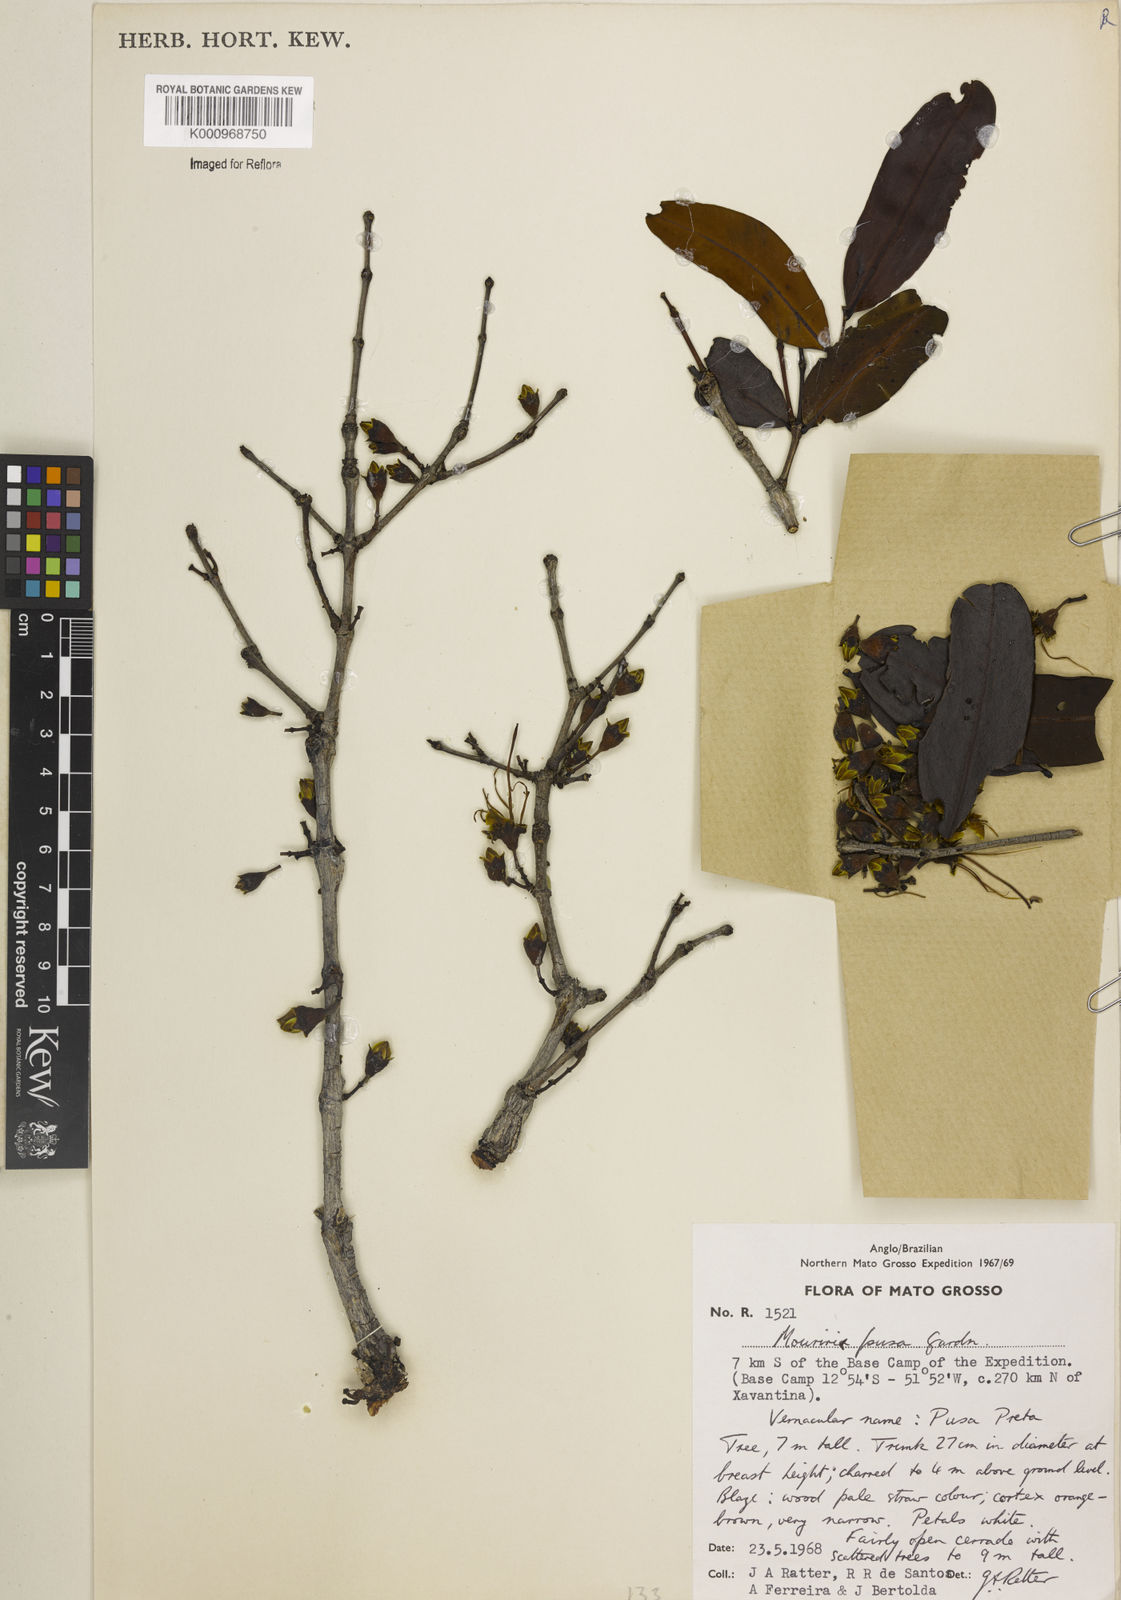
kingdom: Plantae
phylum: Tracheophyta
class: Magnoliopsida
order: Myrtales
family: Melastomataceae
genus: Mouriri
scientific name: Mouriri pusa
